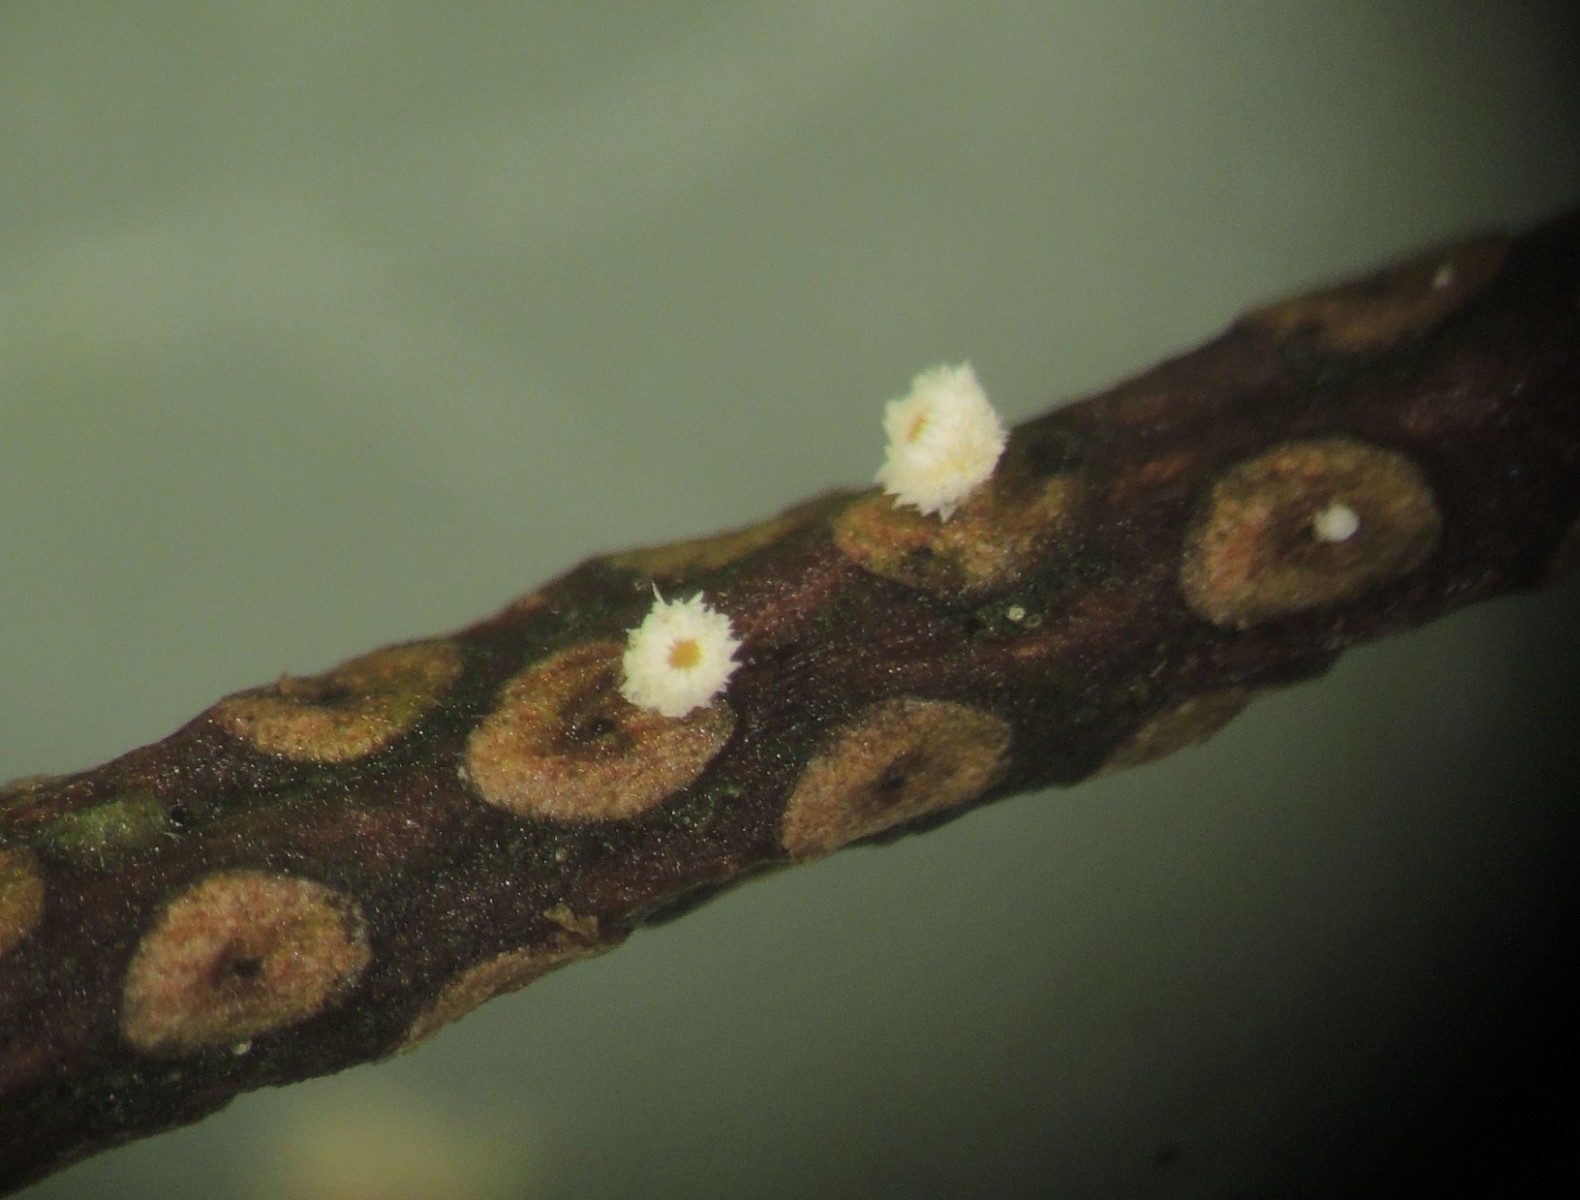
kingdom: Fungi
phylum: Ascomycota
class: Leotiomycetes
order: Helotiales
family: Lachnaceae
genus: Perrotia
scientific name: Perrotia gallica
